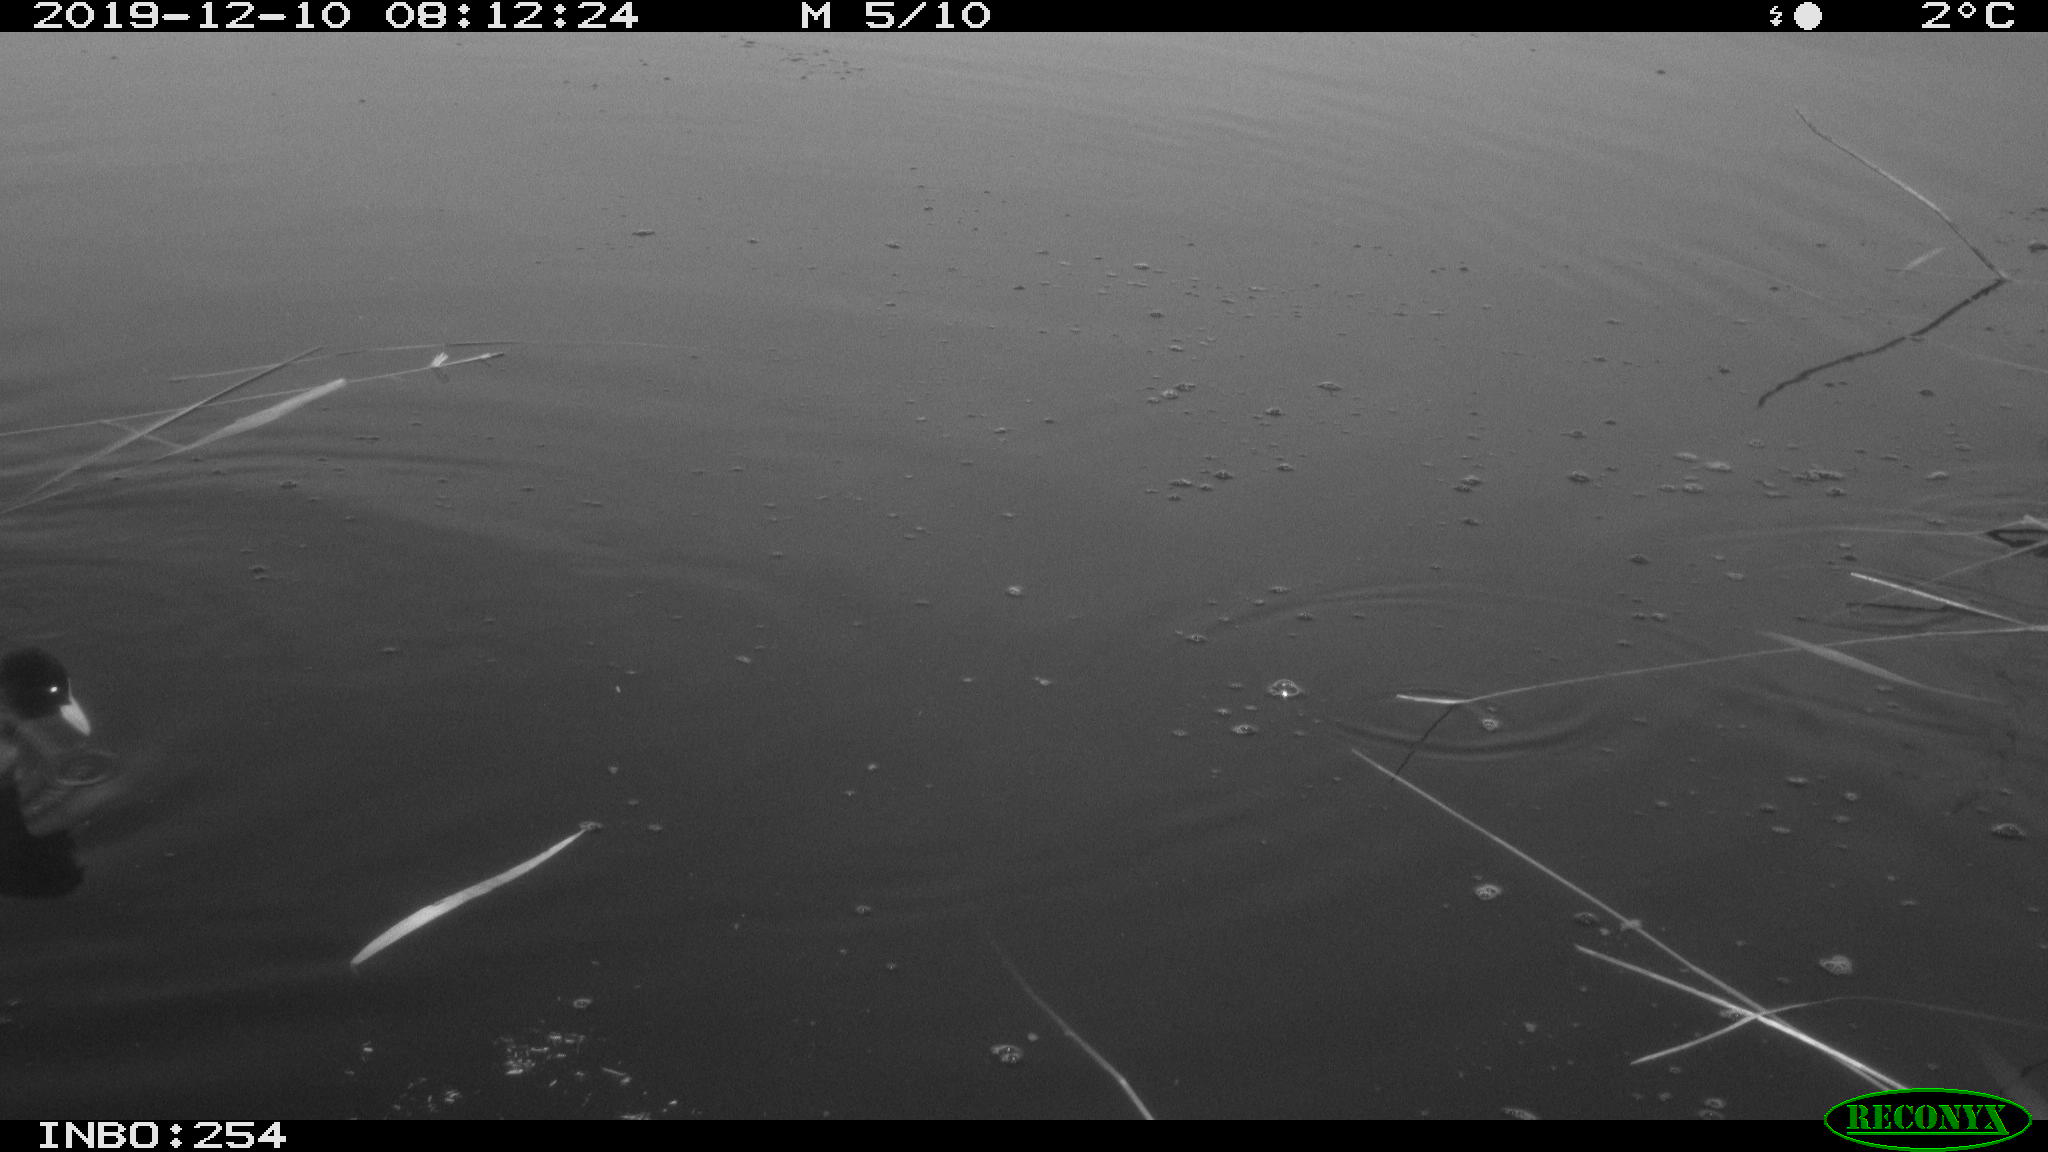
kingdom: Animalia
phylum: Chordata
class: Aves
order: Gruiformes
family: Rallidae
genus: Fulica
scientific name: Fulica atra
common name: Eurasian coot
